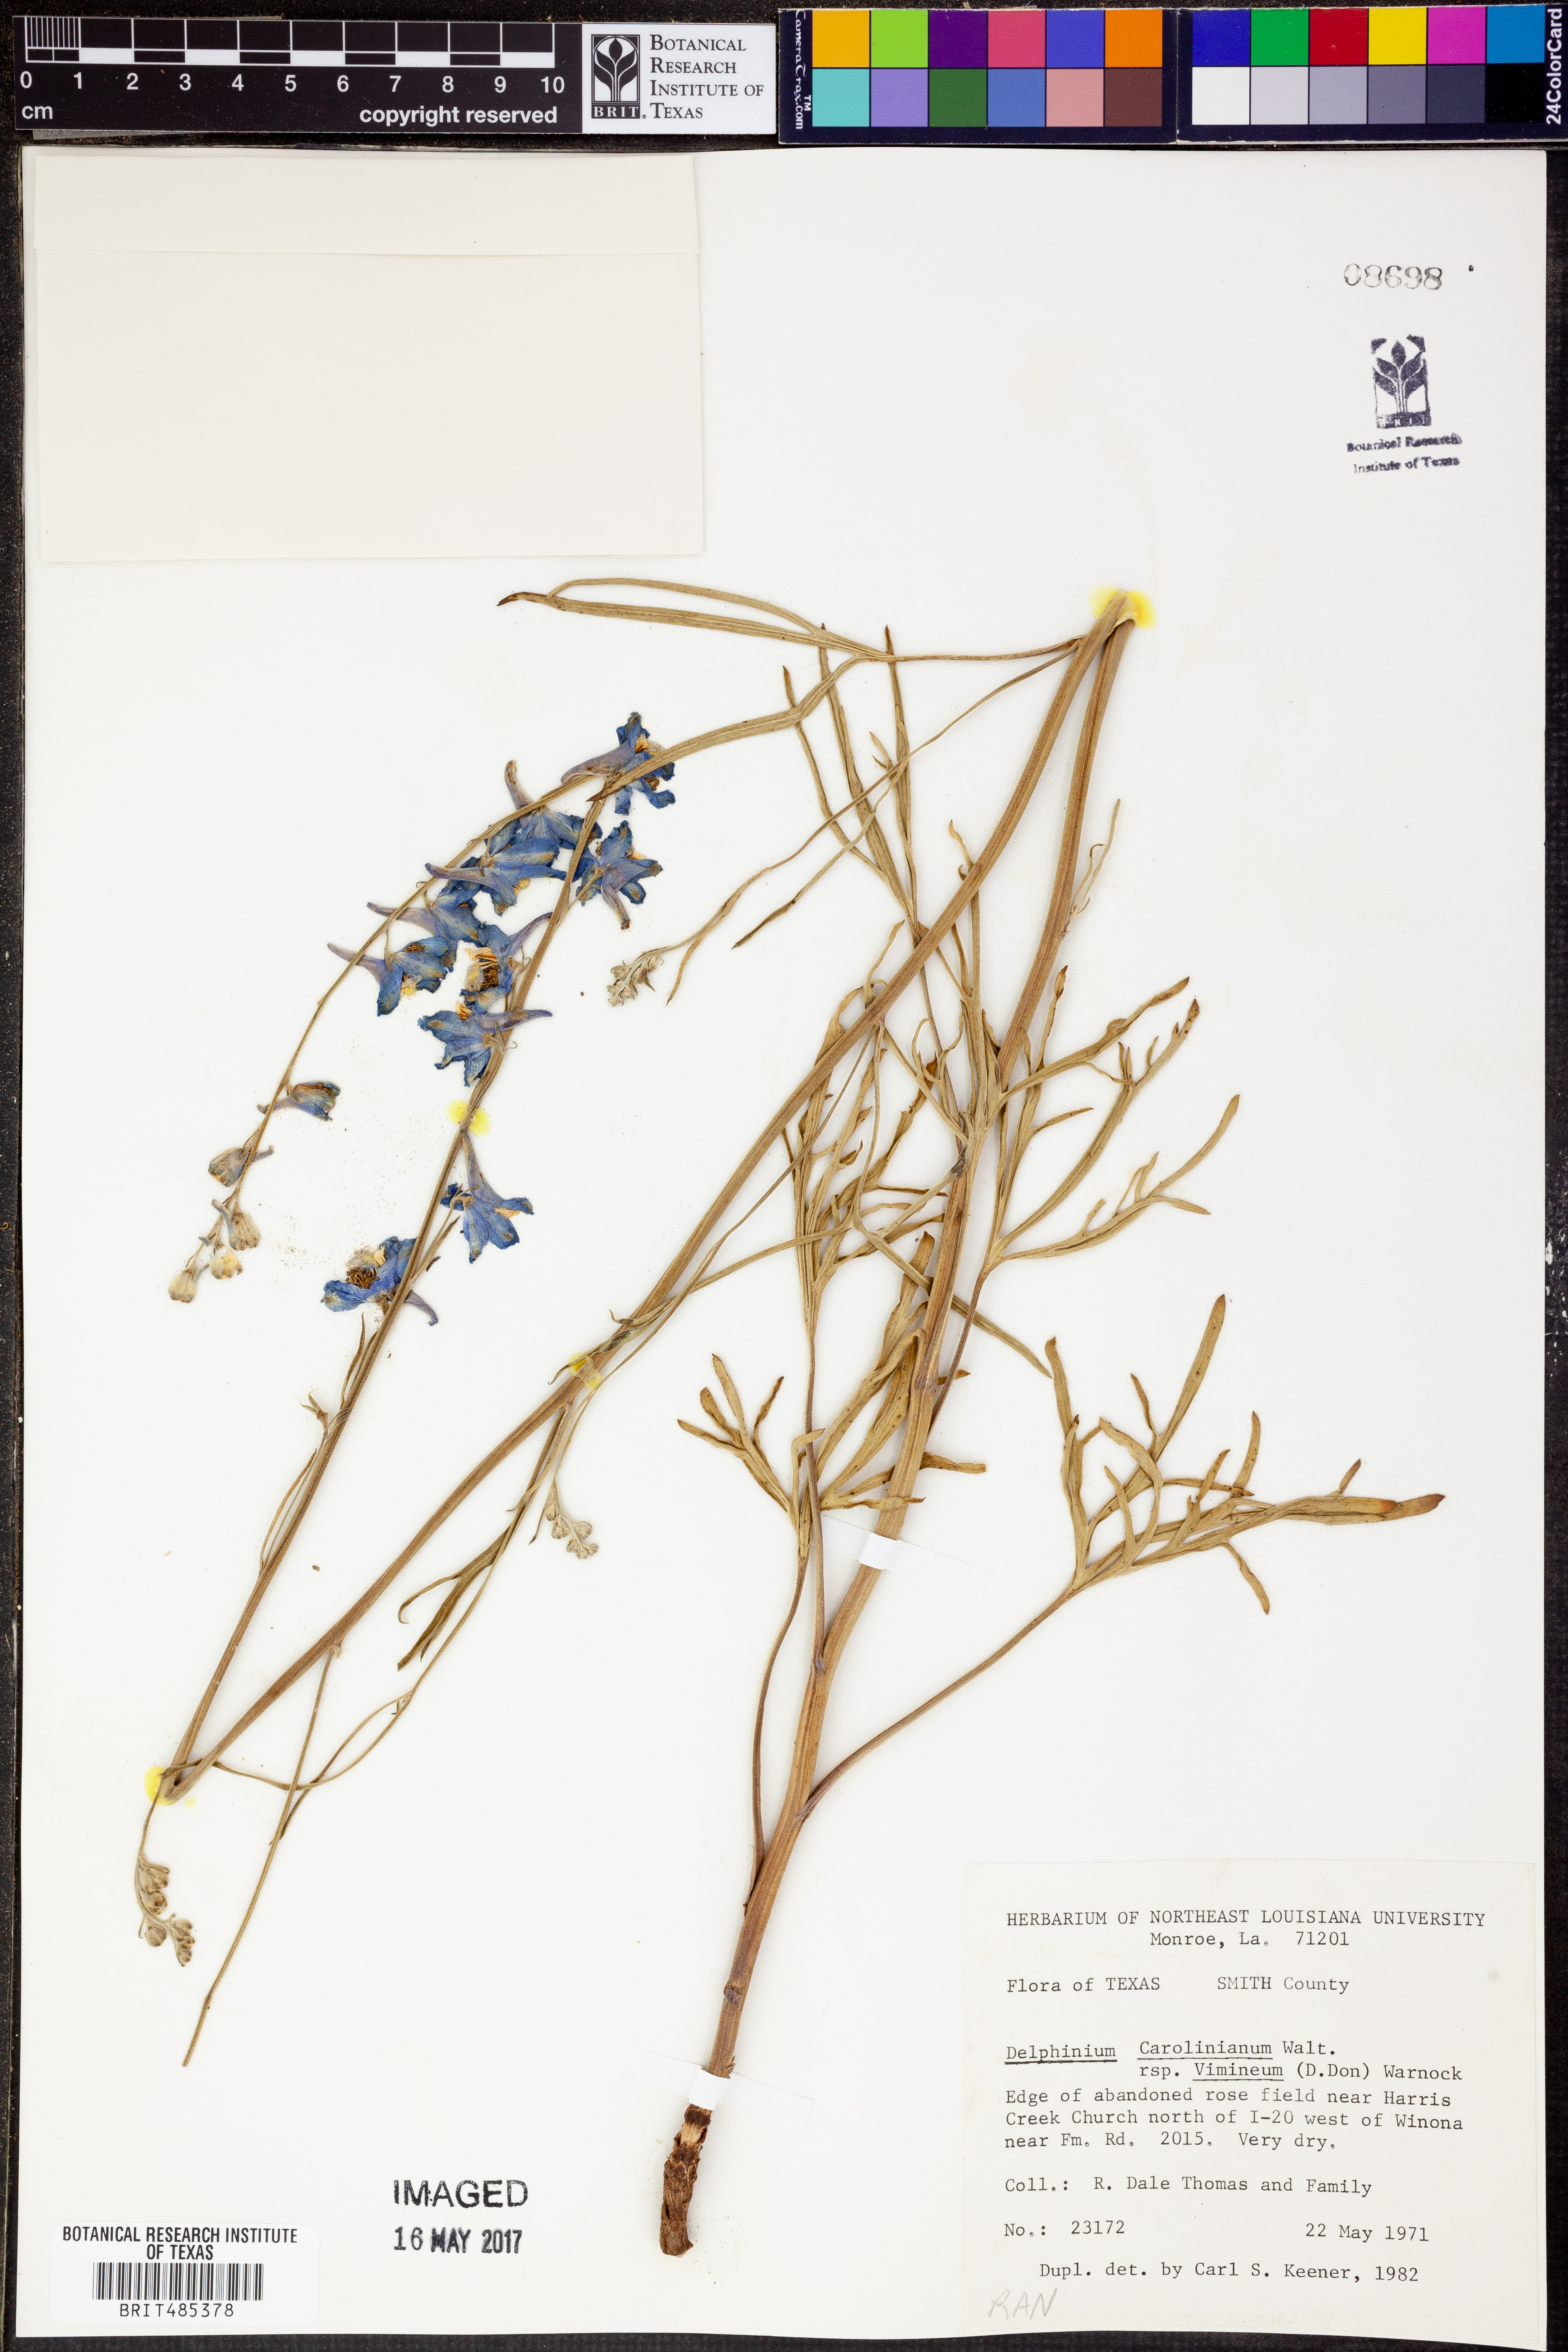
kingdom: Plantae
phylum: Tracheophyta
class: Magnoliopsida
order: Ranunculales
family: Ranunculaceae
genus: Delphinium
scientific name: Delphinium carolinianum
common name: Carolina larkspur
